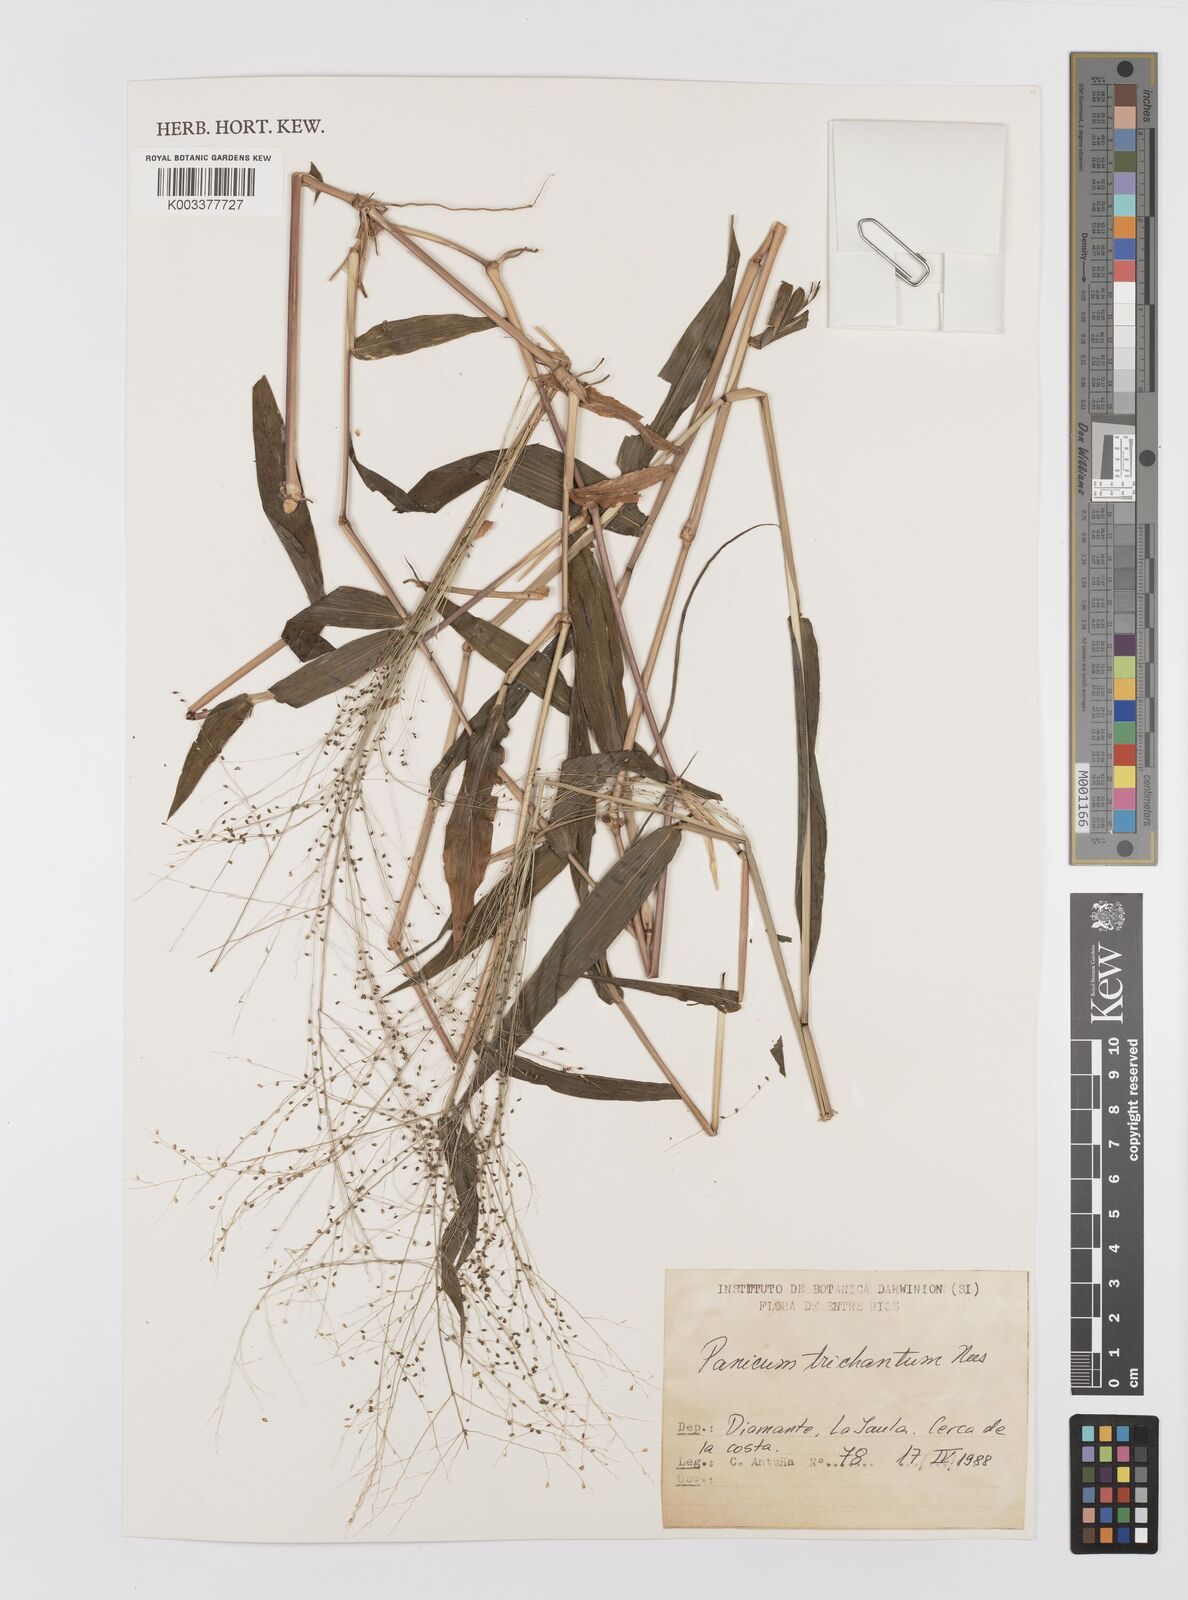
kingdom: Plantae
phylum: Tracheophyta
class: Liliopsida
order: Poales
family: Poaceae
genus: Panicum
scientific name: Panicum trichanthum
